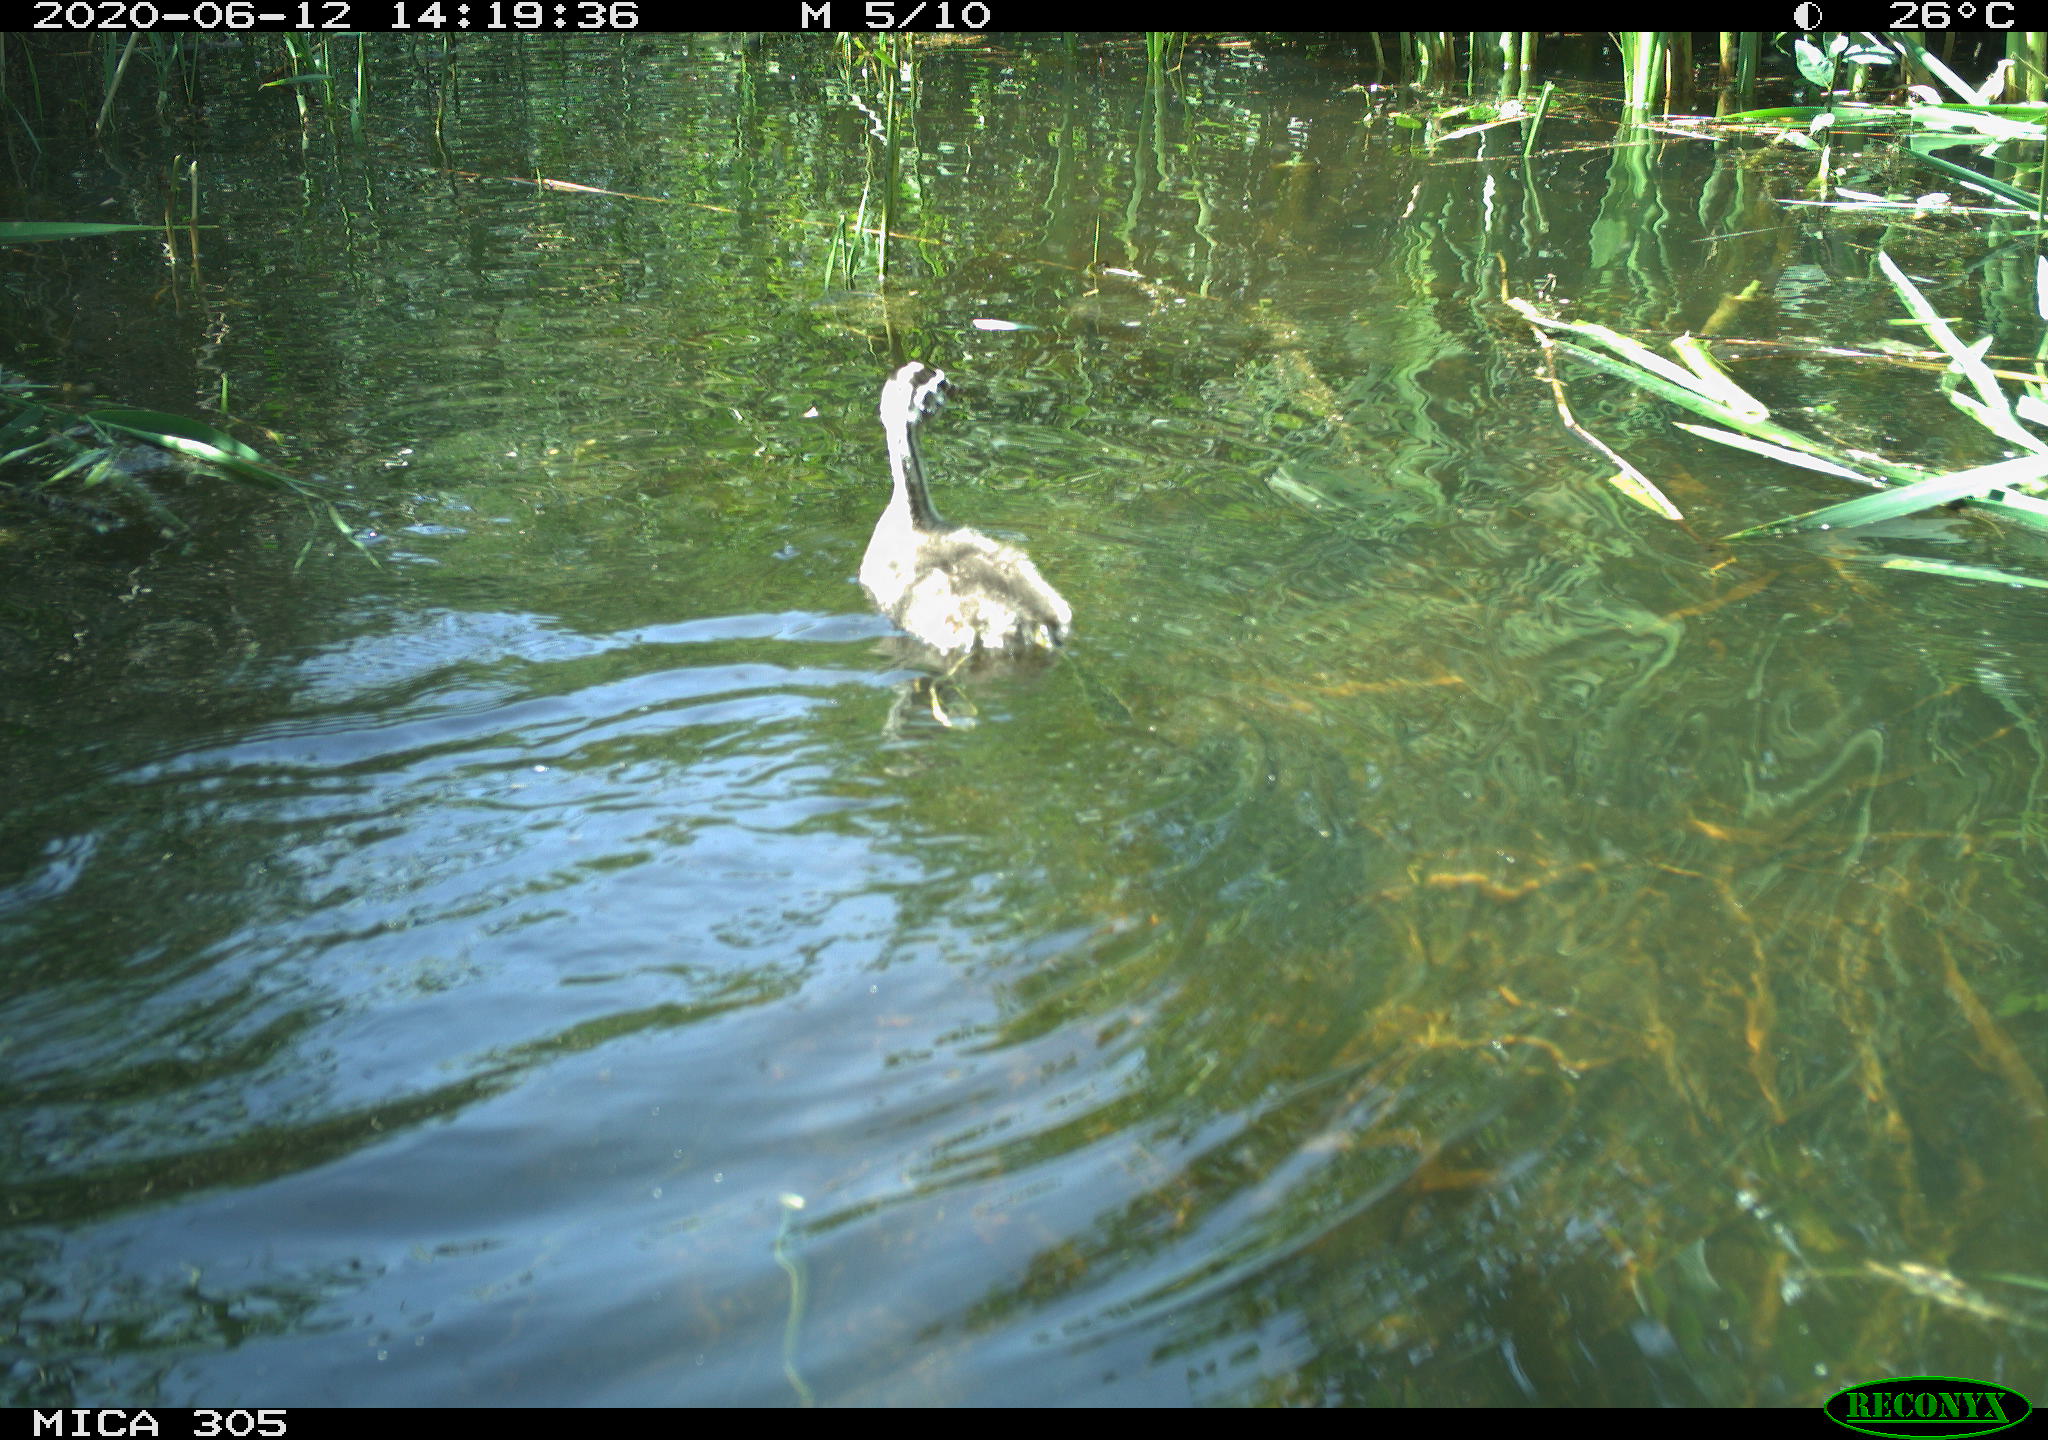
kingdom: Animalia
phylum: Chordata
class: Aves
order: Podicipediformes
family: Podicipedidae
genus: Podiceps
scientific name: Podiceps cristatus
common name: Great crested grebe
